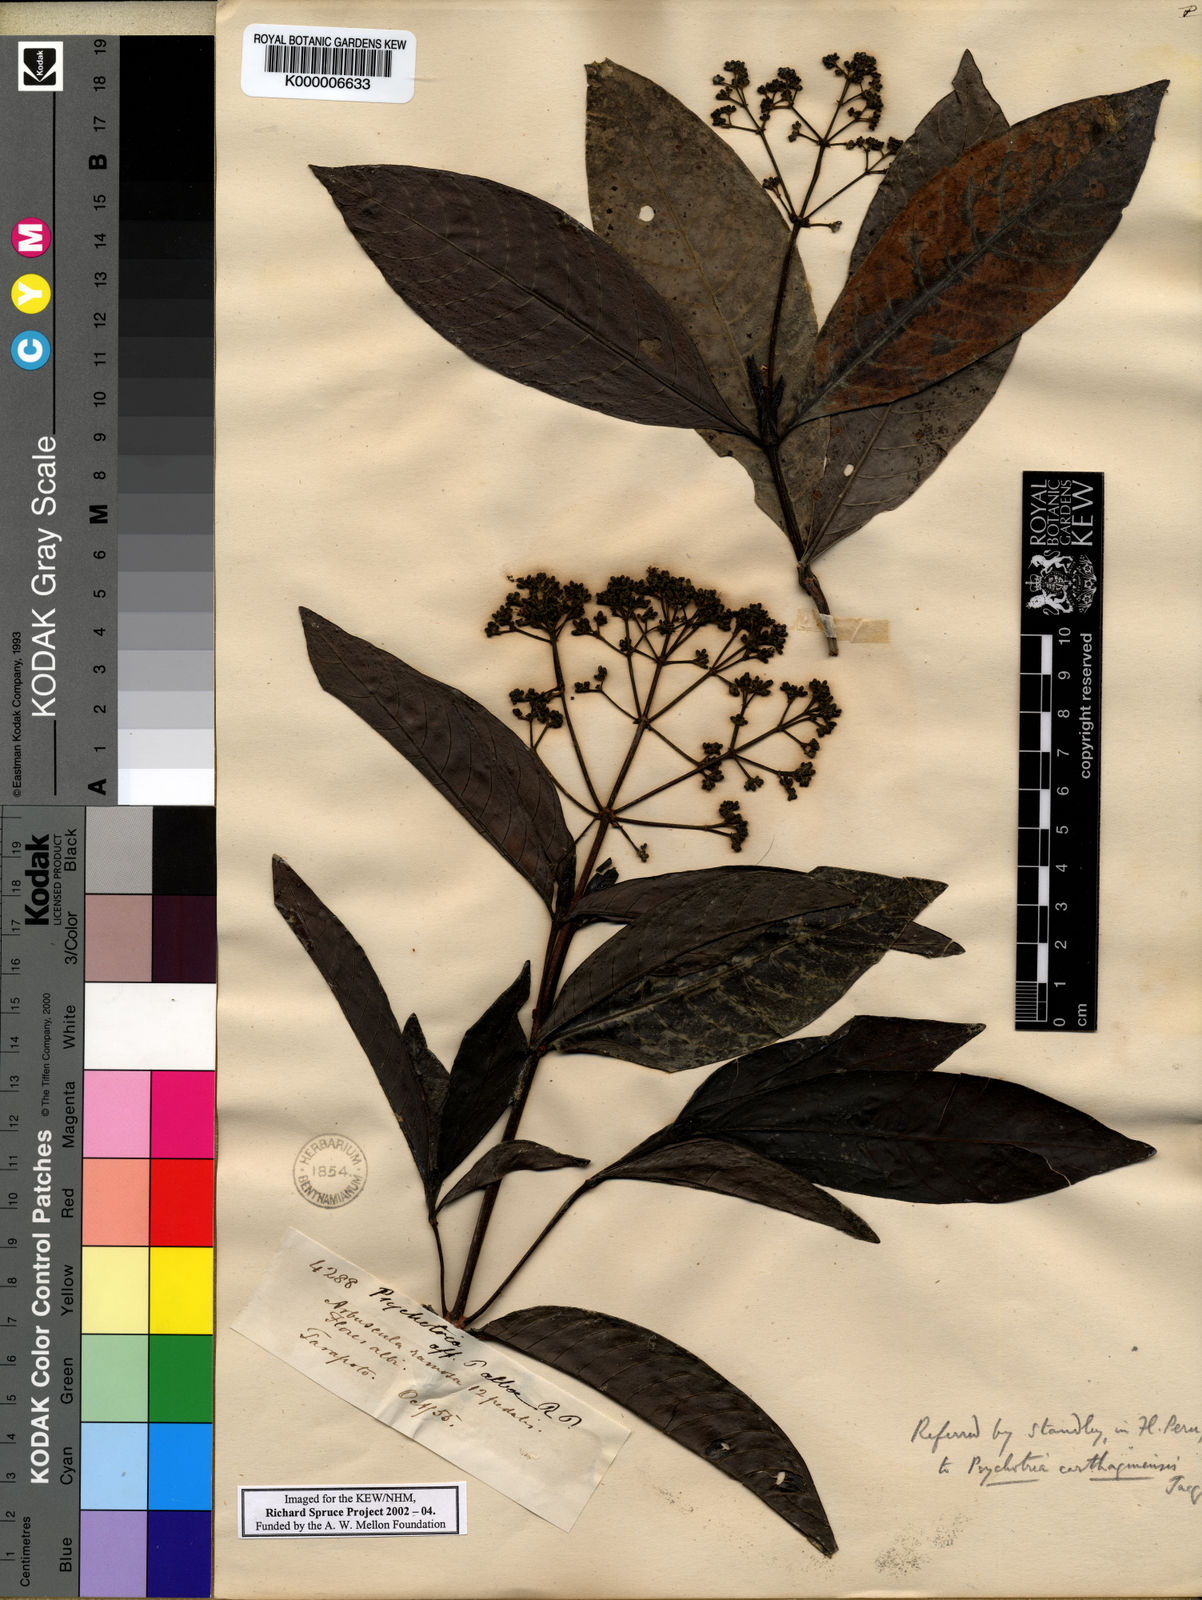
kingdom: Plantae
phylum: Tracheophyta
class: Magnoliopsida
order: Gentianales
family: Rubiaceae
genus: Psychotria
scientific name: Psychotria carthagenensis
